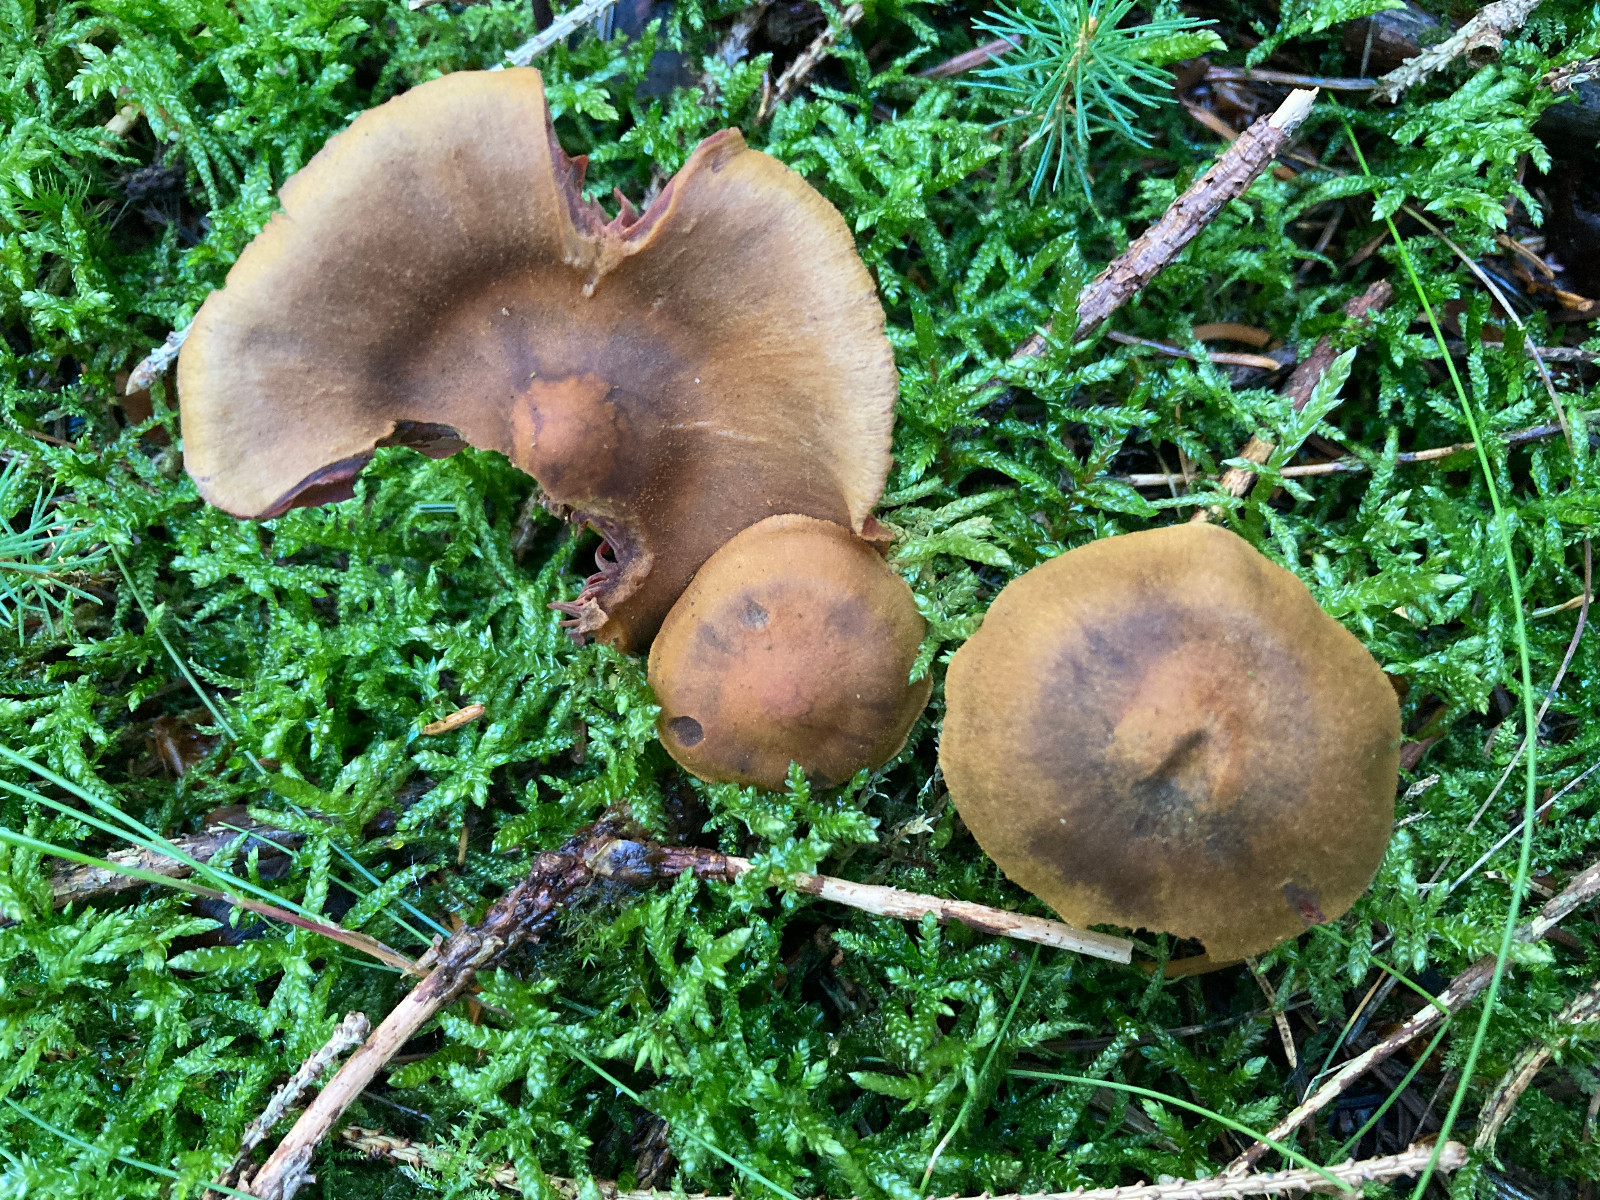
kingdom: Fungi
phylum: Basidiomycota
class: Agaricomycetes
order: Agaricales
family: Cortinariaceae
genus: Cortinarius
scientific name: Cortinarius
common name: cinnoberbladet slørhat
